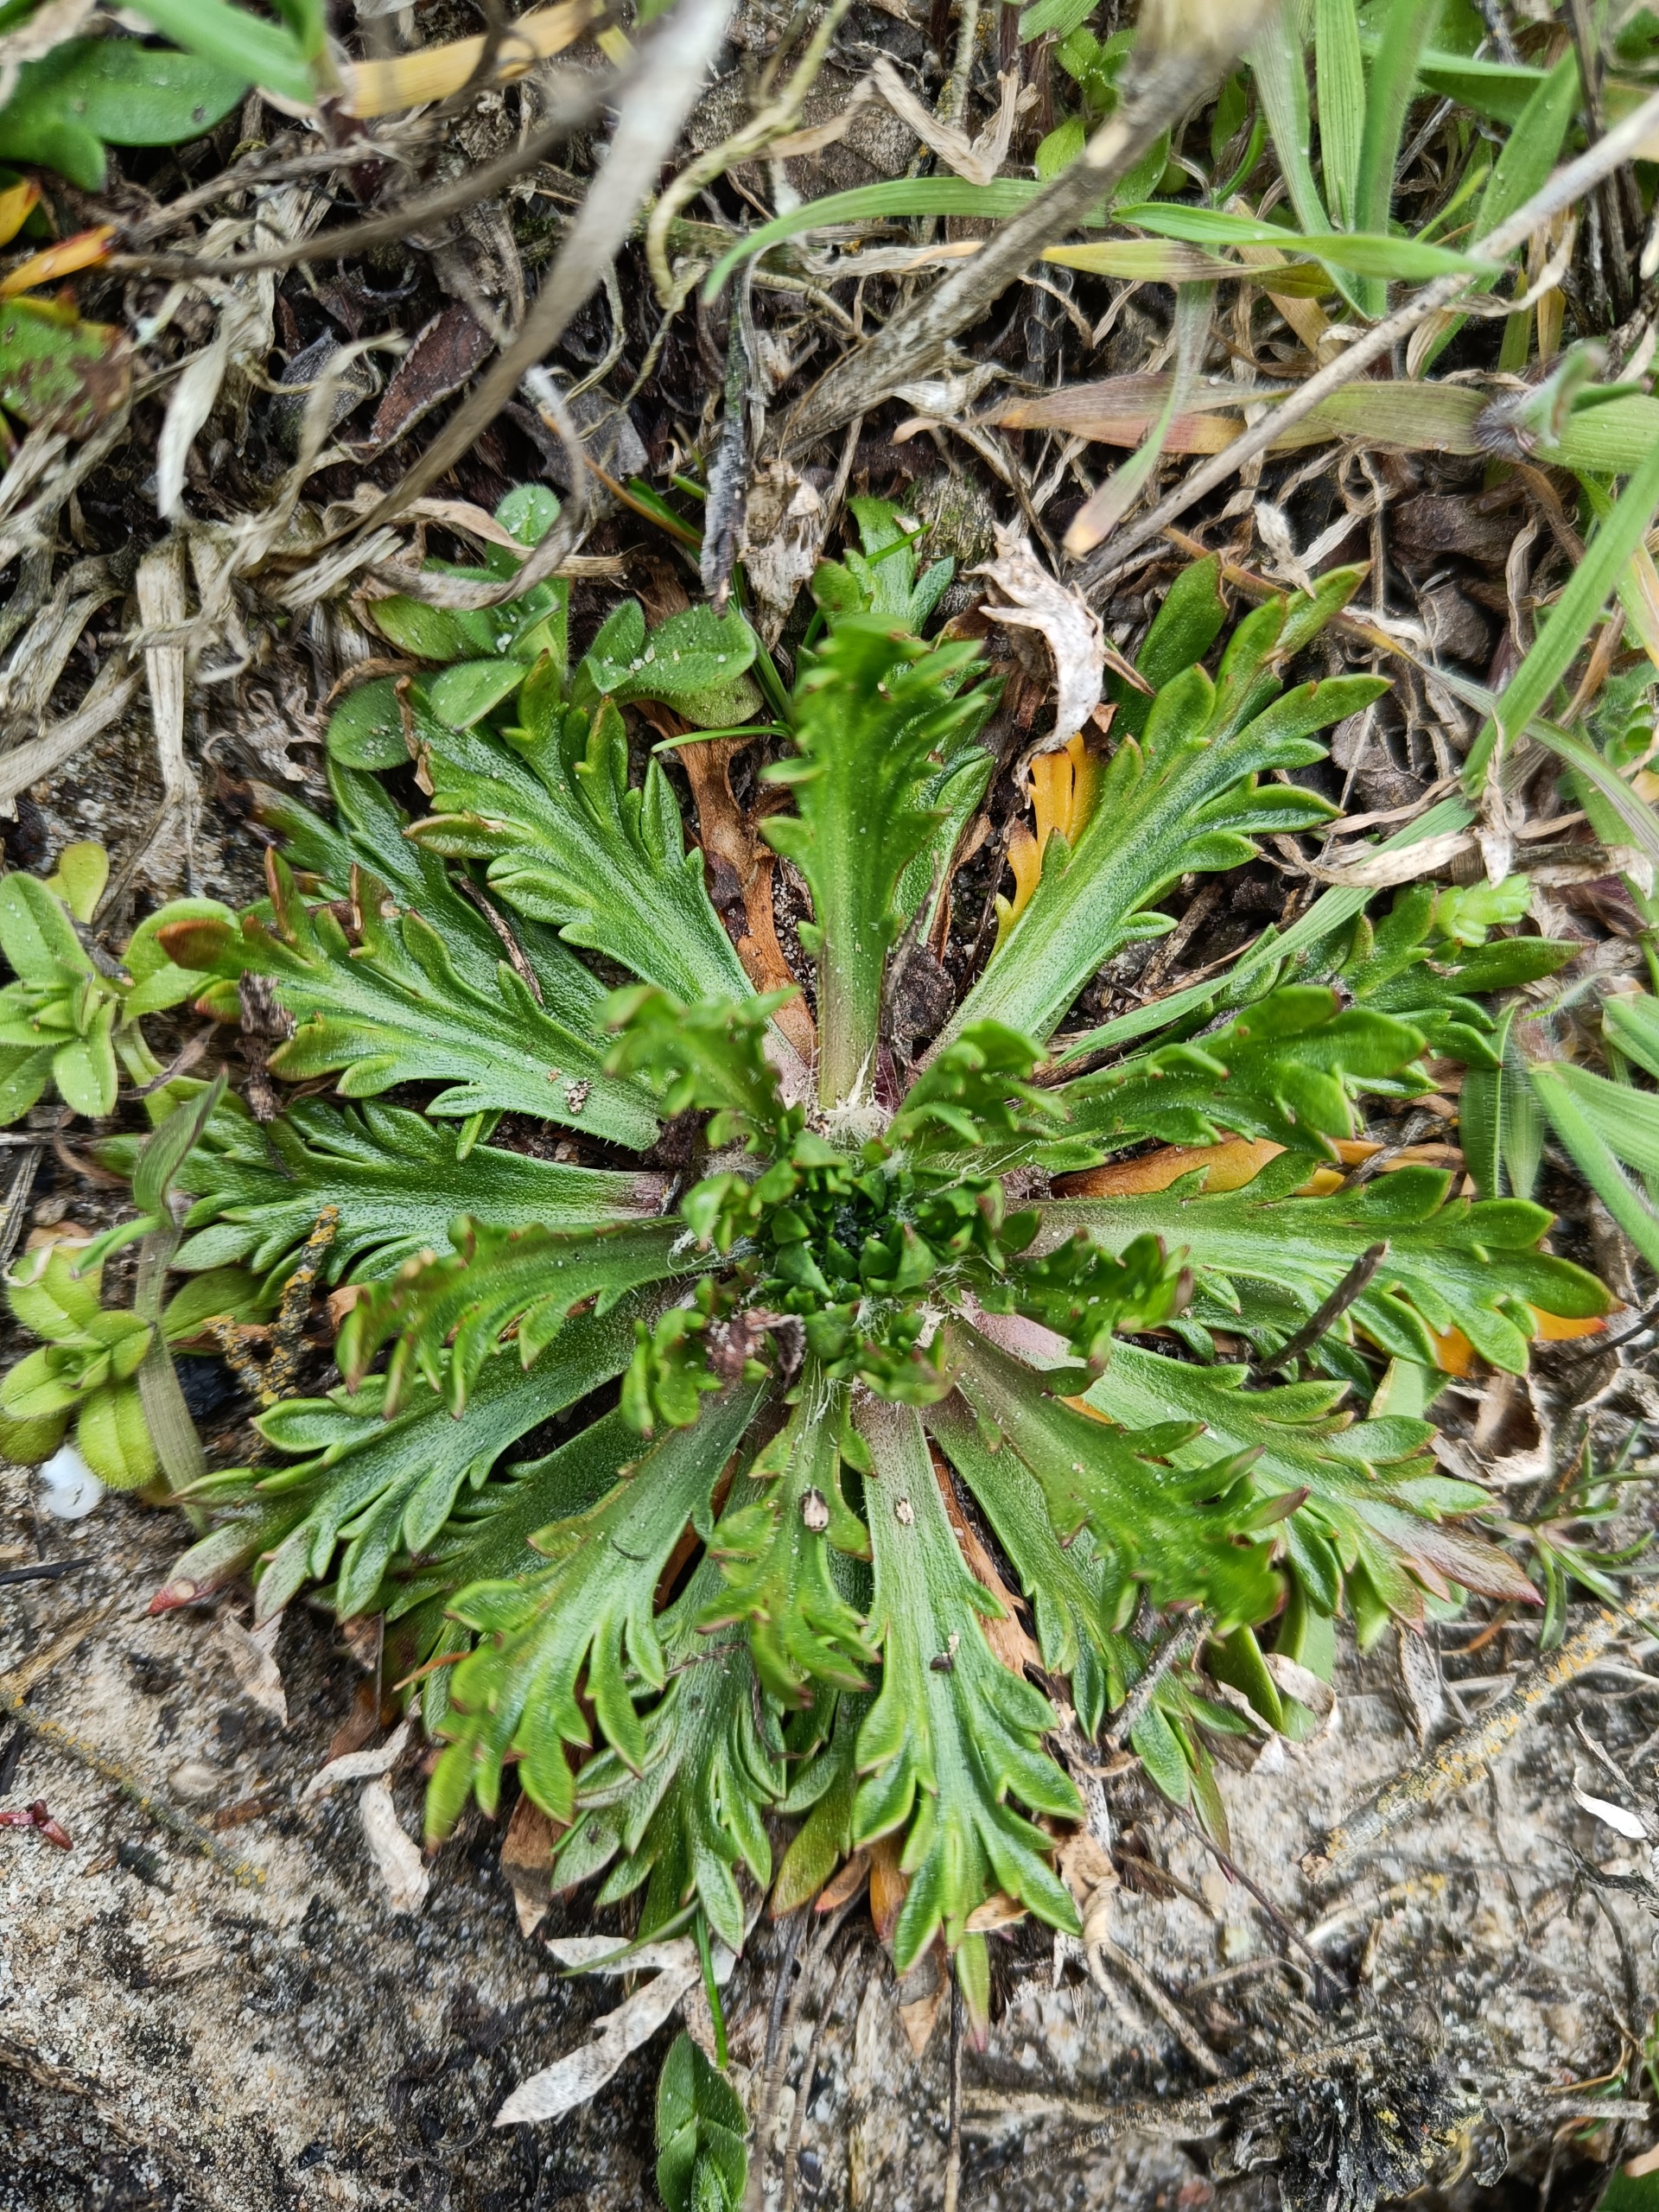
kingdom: Plantae
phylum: Tracheophyta
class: Magnoliopsida
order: Lamiales
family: Plantaginaceae
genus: Plantago
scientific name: Plantago coronopus
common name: Fliget vejbred
